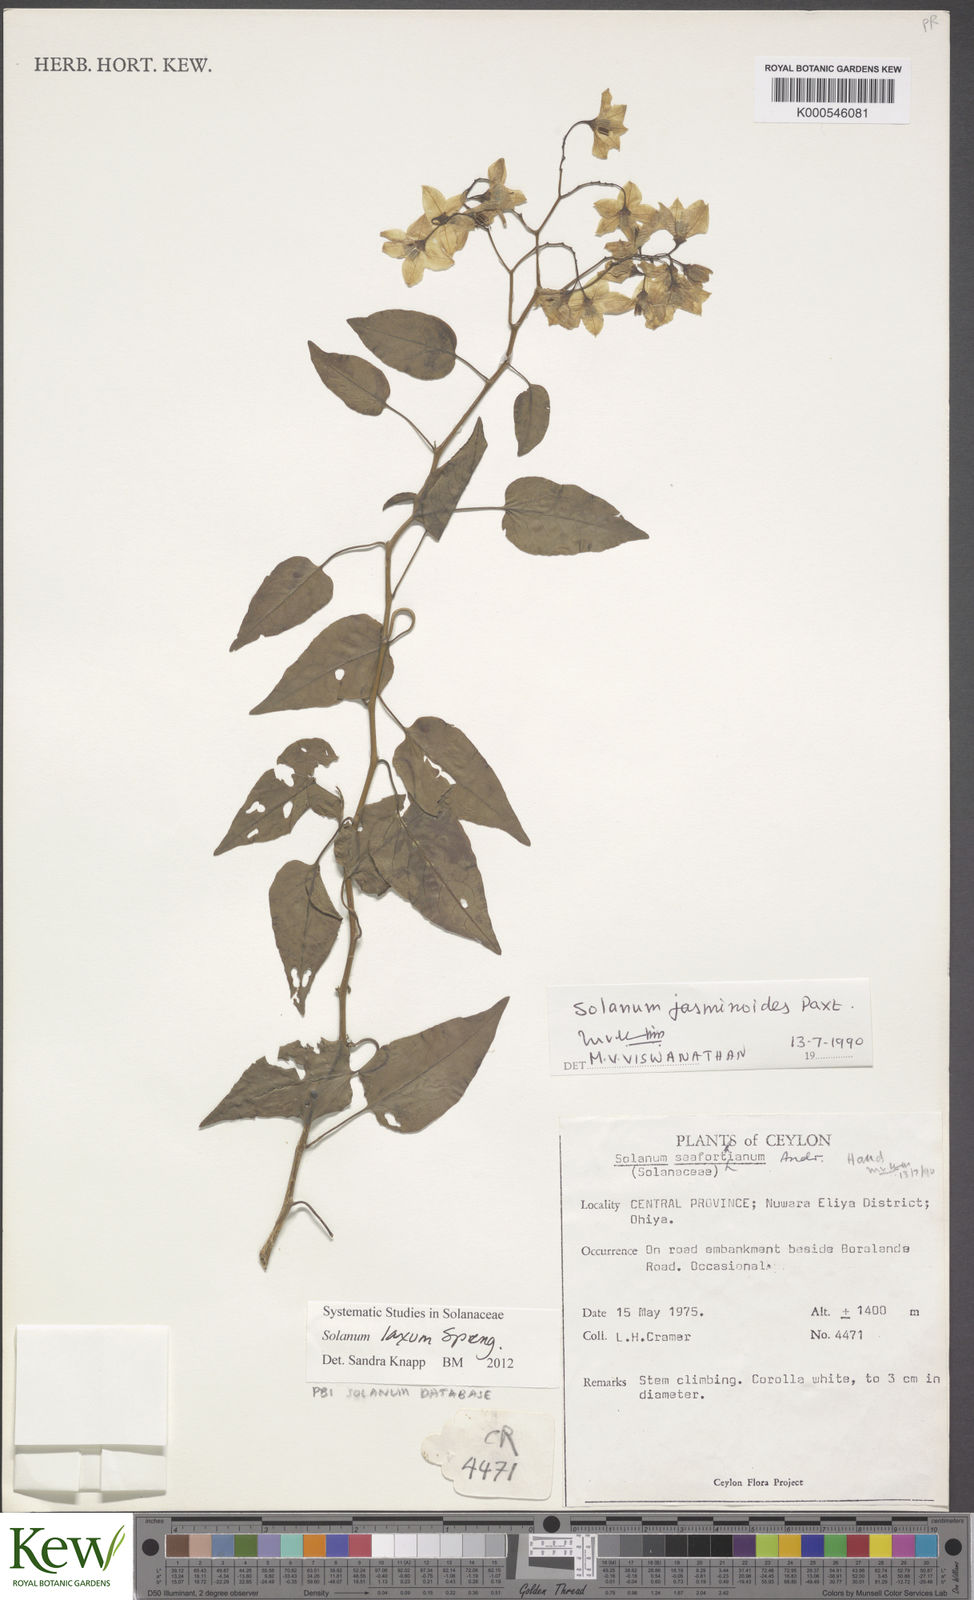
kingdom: Plantae
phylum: Tracheophyta
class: Magnoliopsida
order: Solanales
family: Solanaceae
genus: Solanum
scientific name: Solanum laxum
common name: Nightshade
